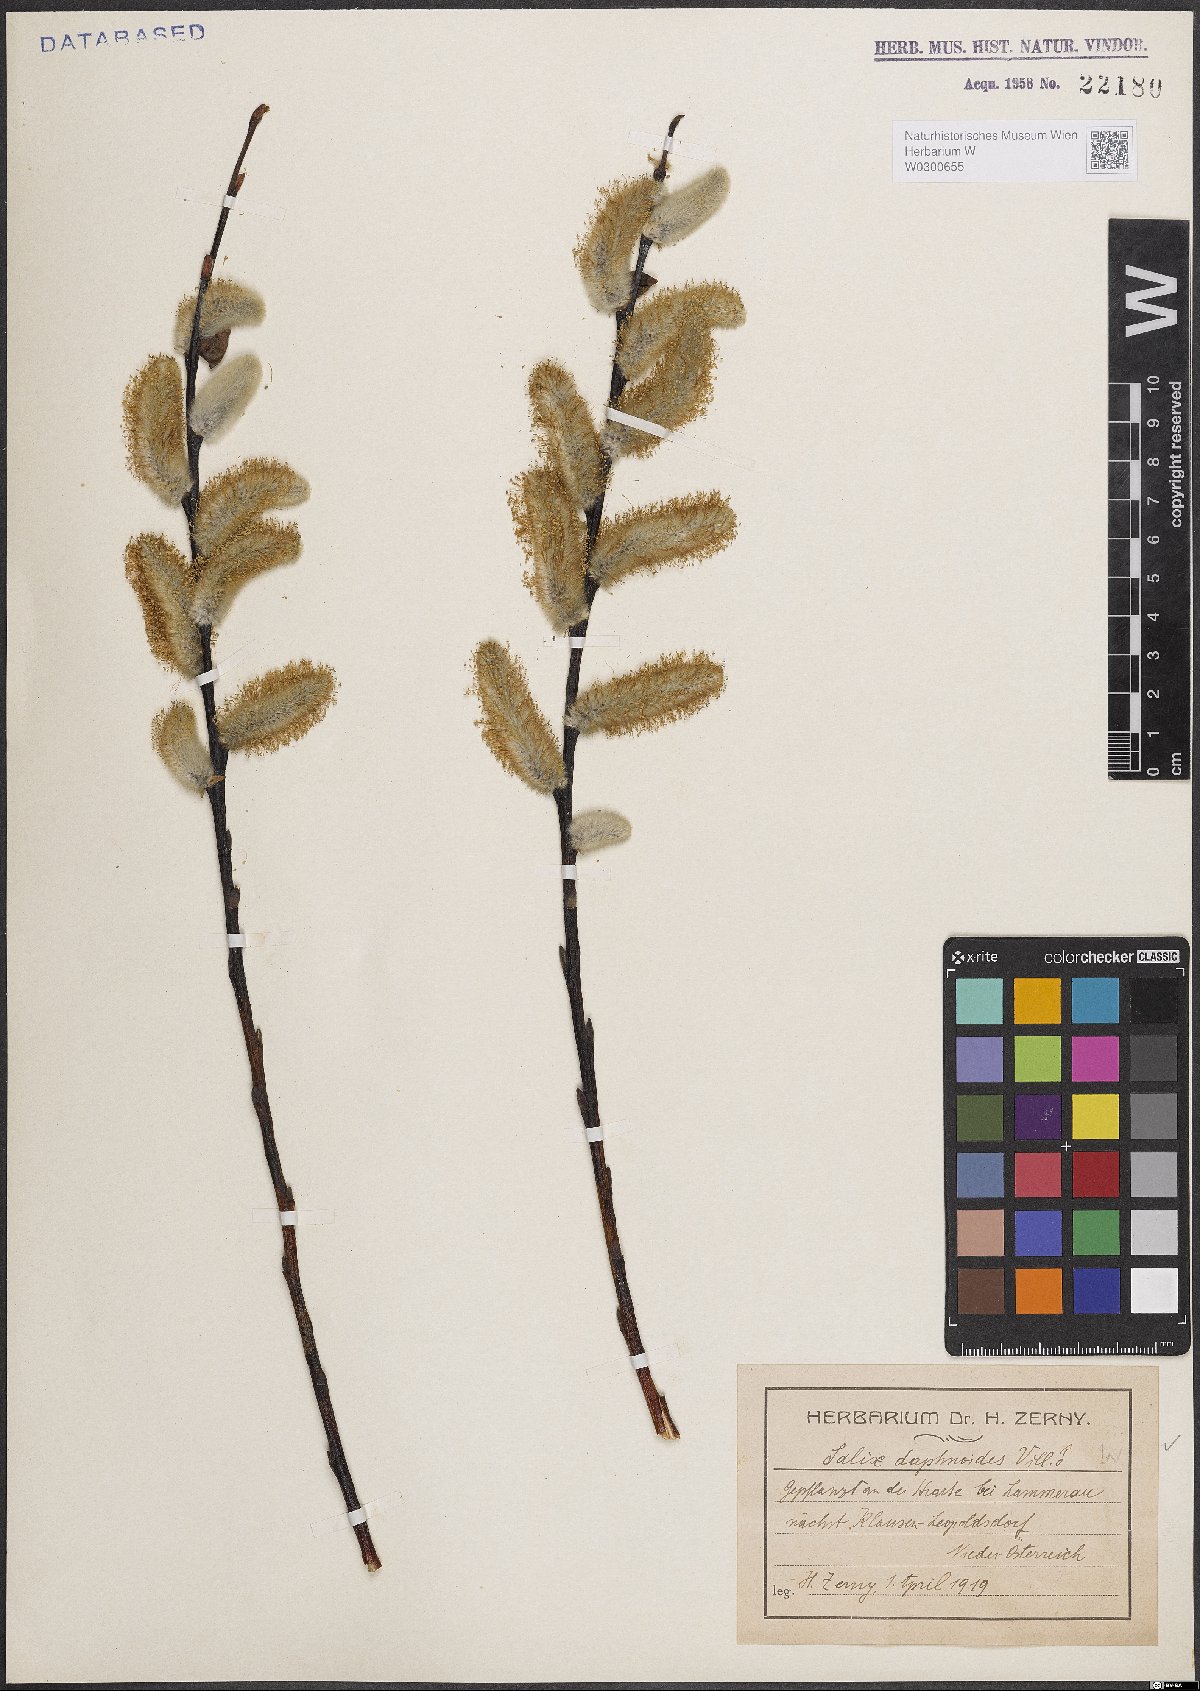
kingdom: Plantae
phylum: Tracheophyta
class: Magnoliopsida
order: Malpighiales
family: Salicaceae
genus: Salix
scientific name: Salix daphnoides
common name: European violet-willow
